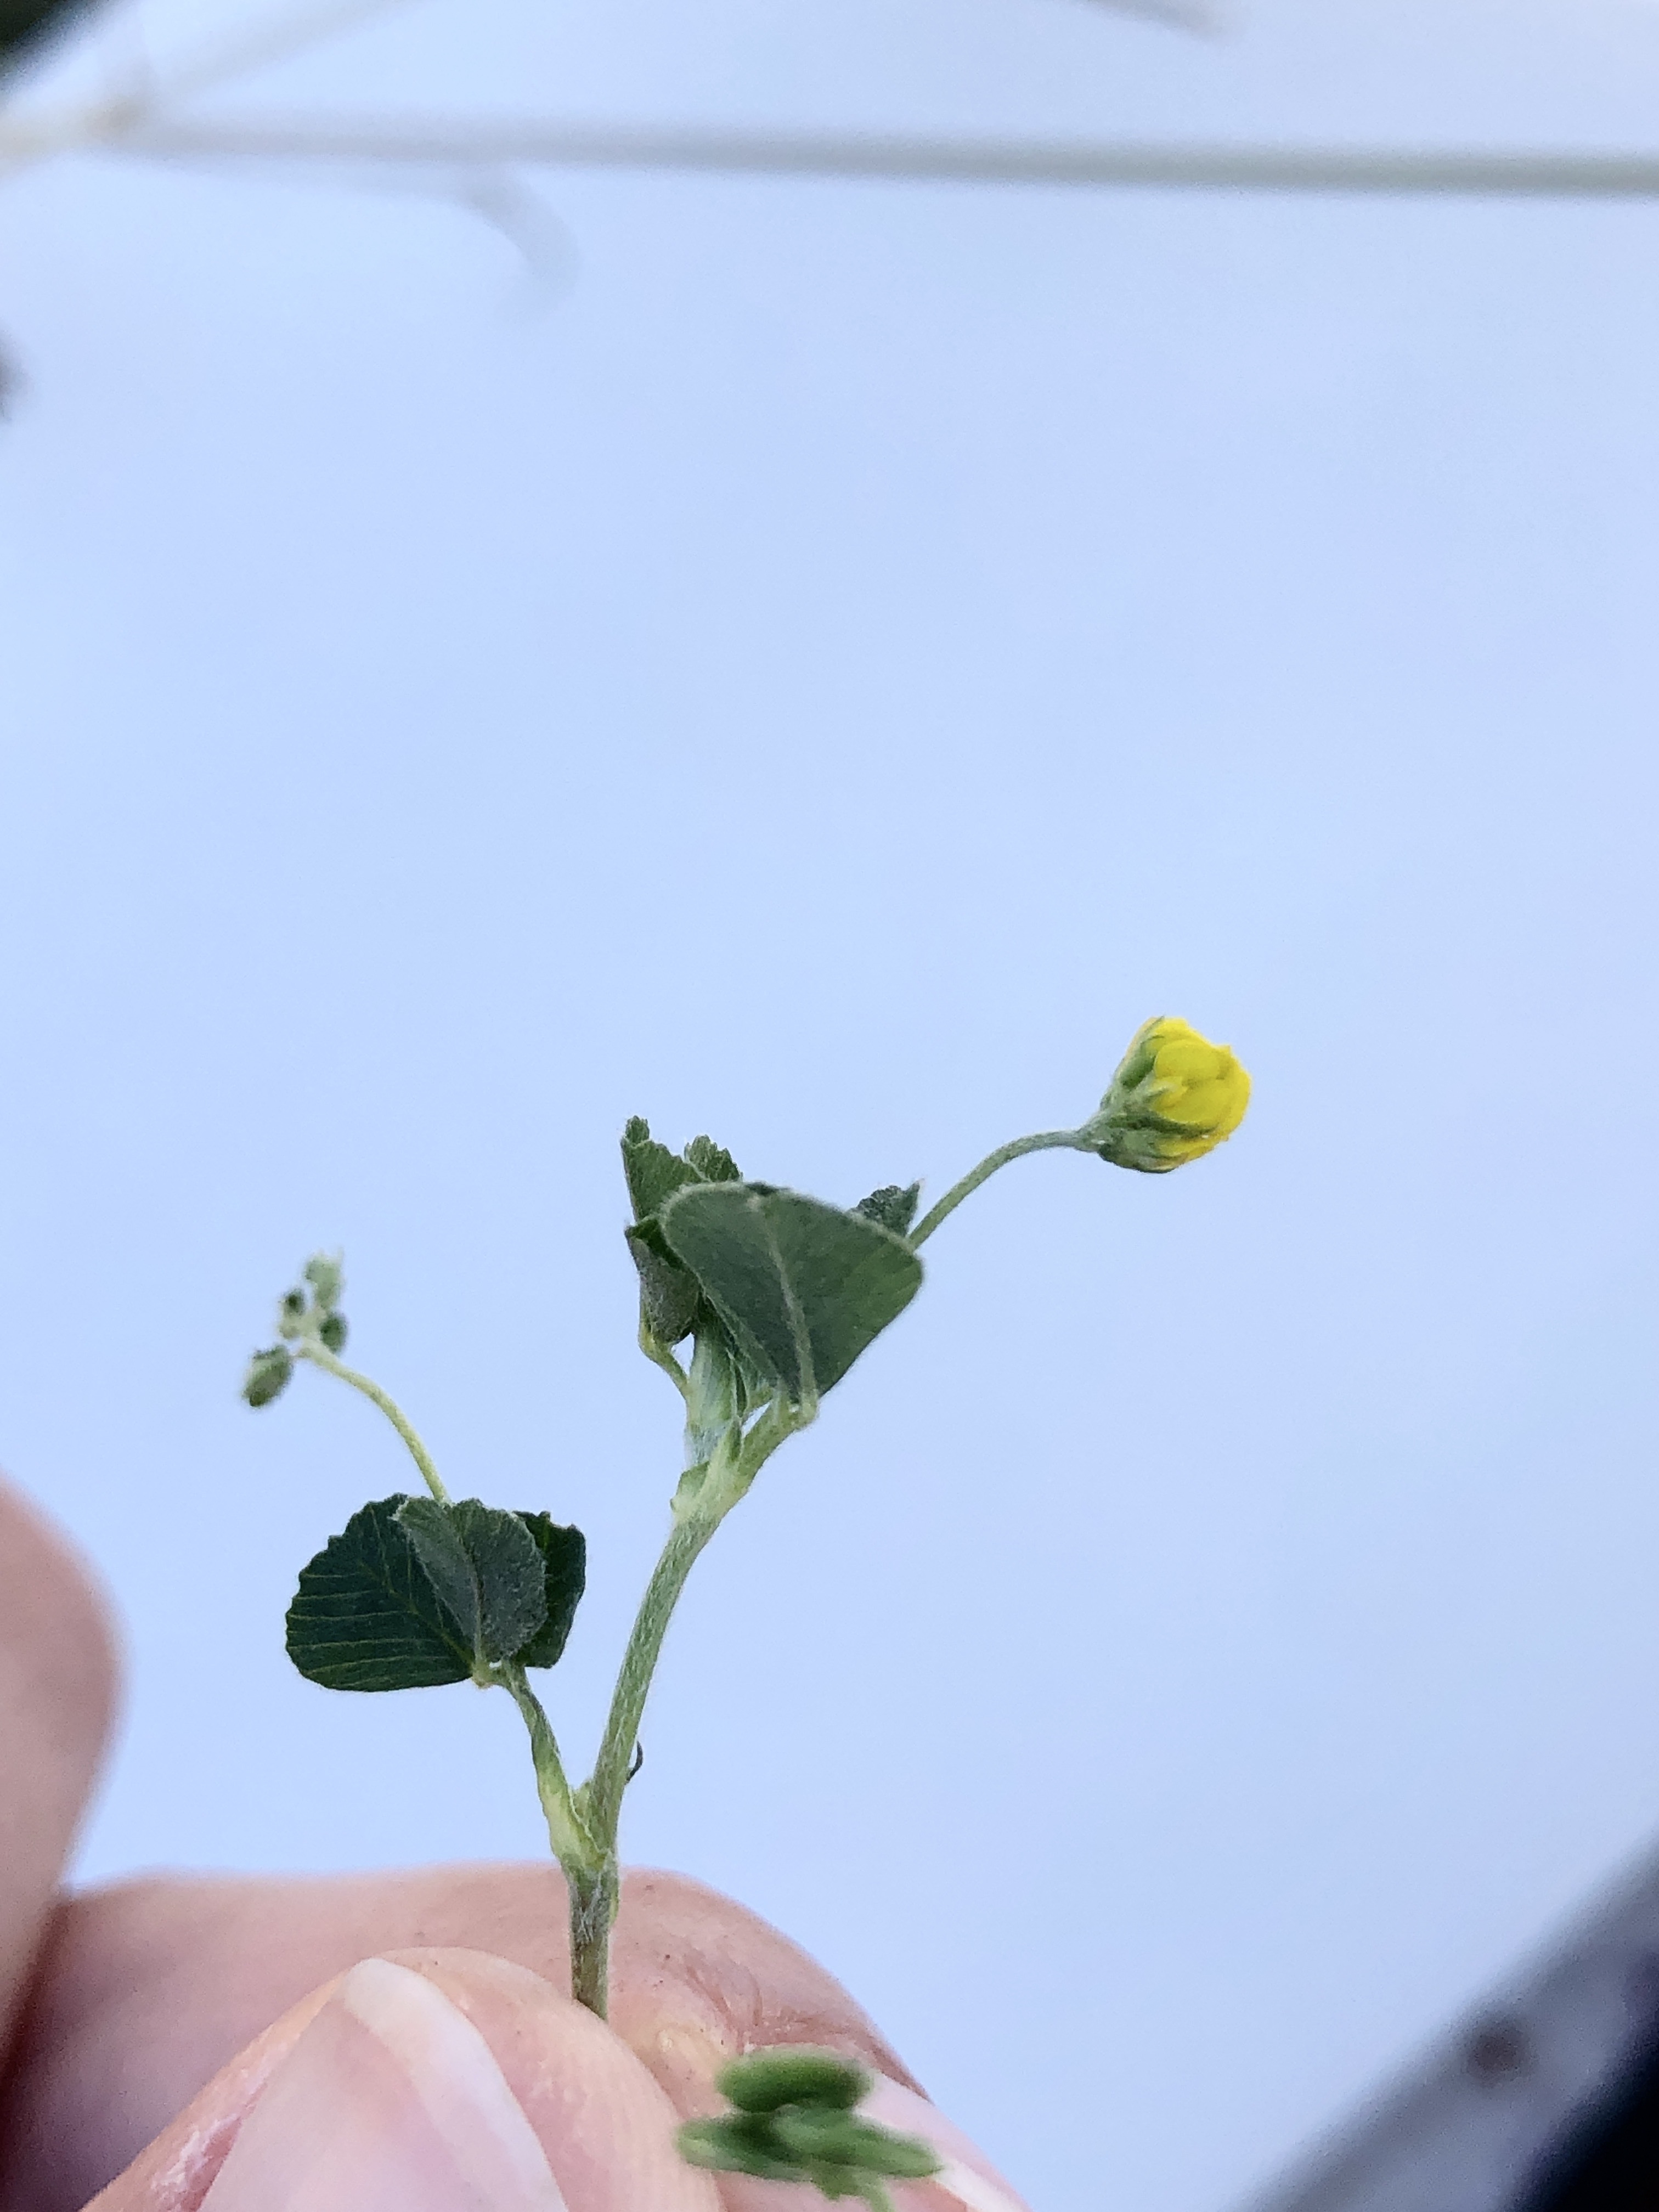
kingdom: Plantae
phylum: Tracheophyta
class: Magnoliopsida
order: Fabales
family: Fabaceae
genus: Medicago
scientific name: Medicago lupulina
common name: Humle-sneglebælg
